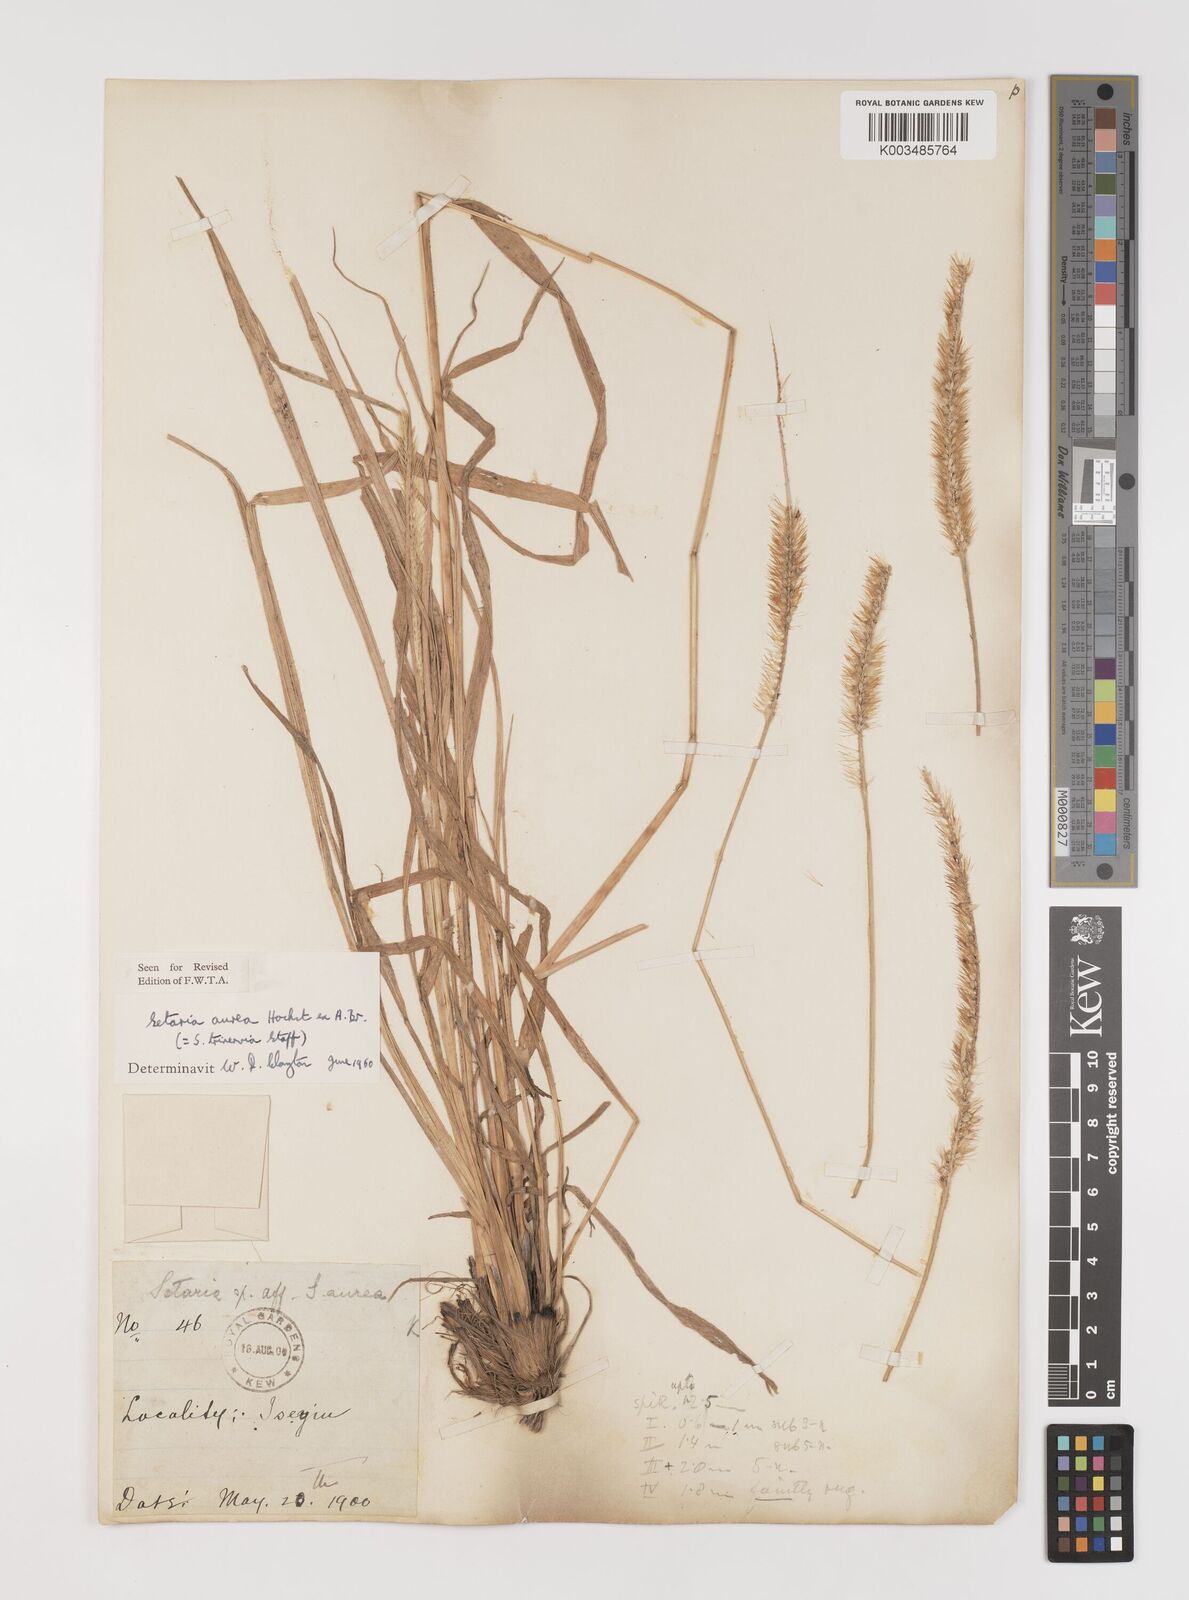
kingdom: Plantae
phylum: Tracheophyta
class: Liliopsida
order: Poales
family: Poaceae
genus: Setaria
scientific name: Setaria sphacelata
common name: African bristlegrass
